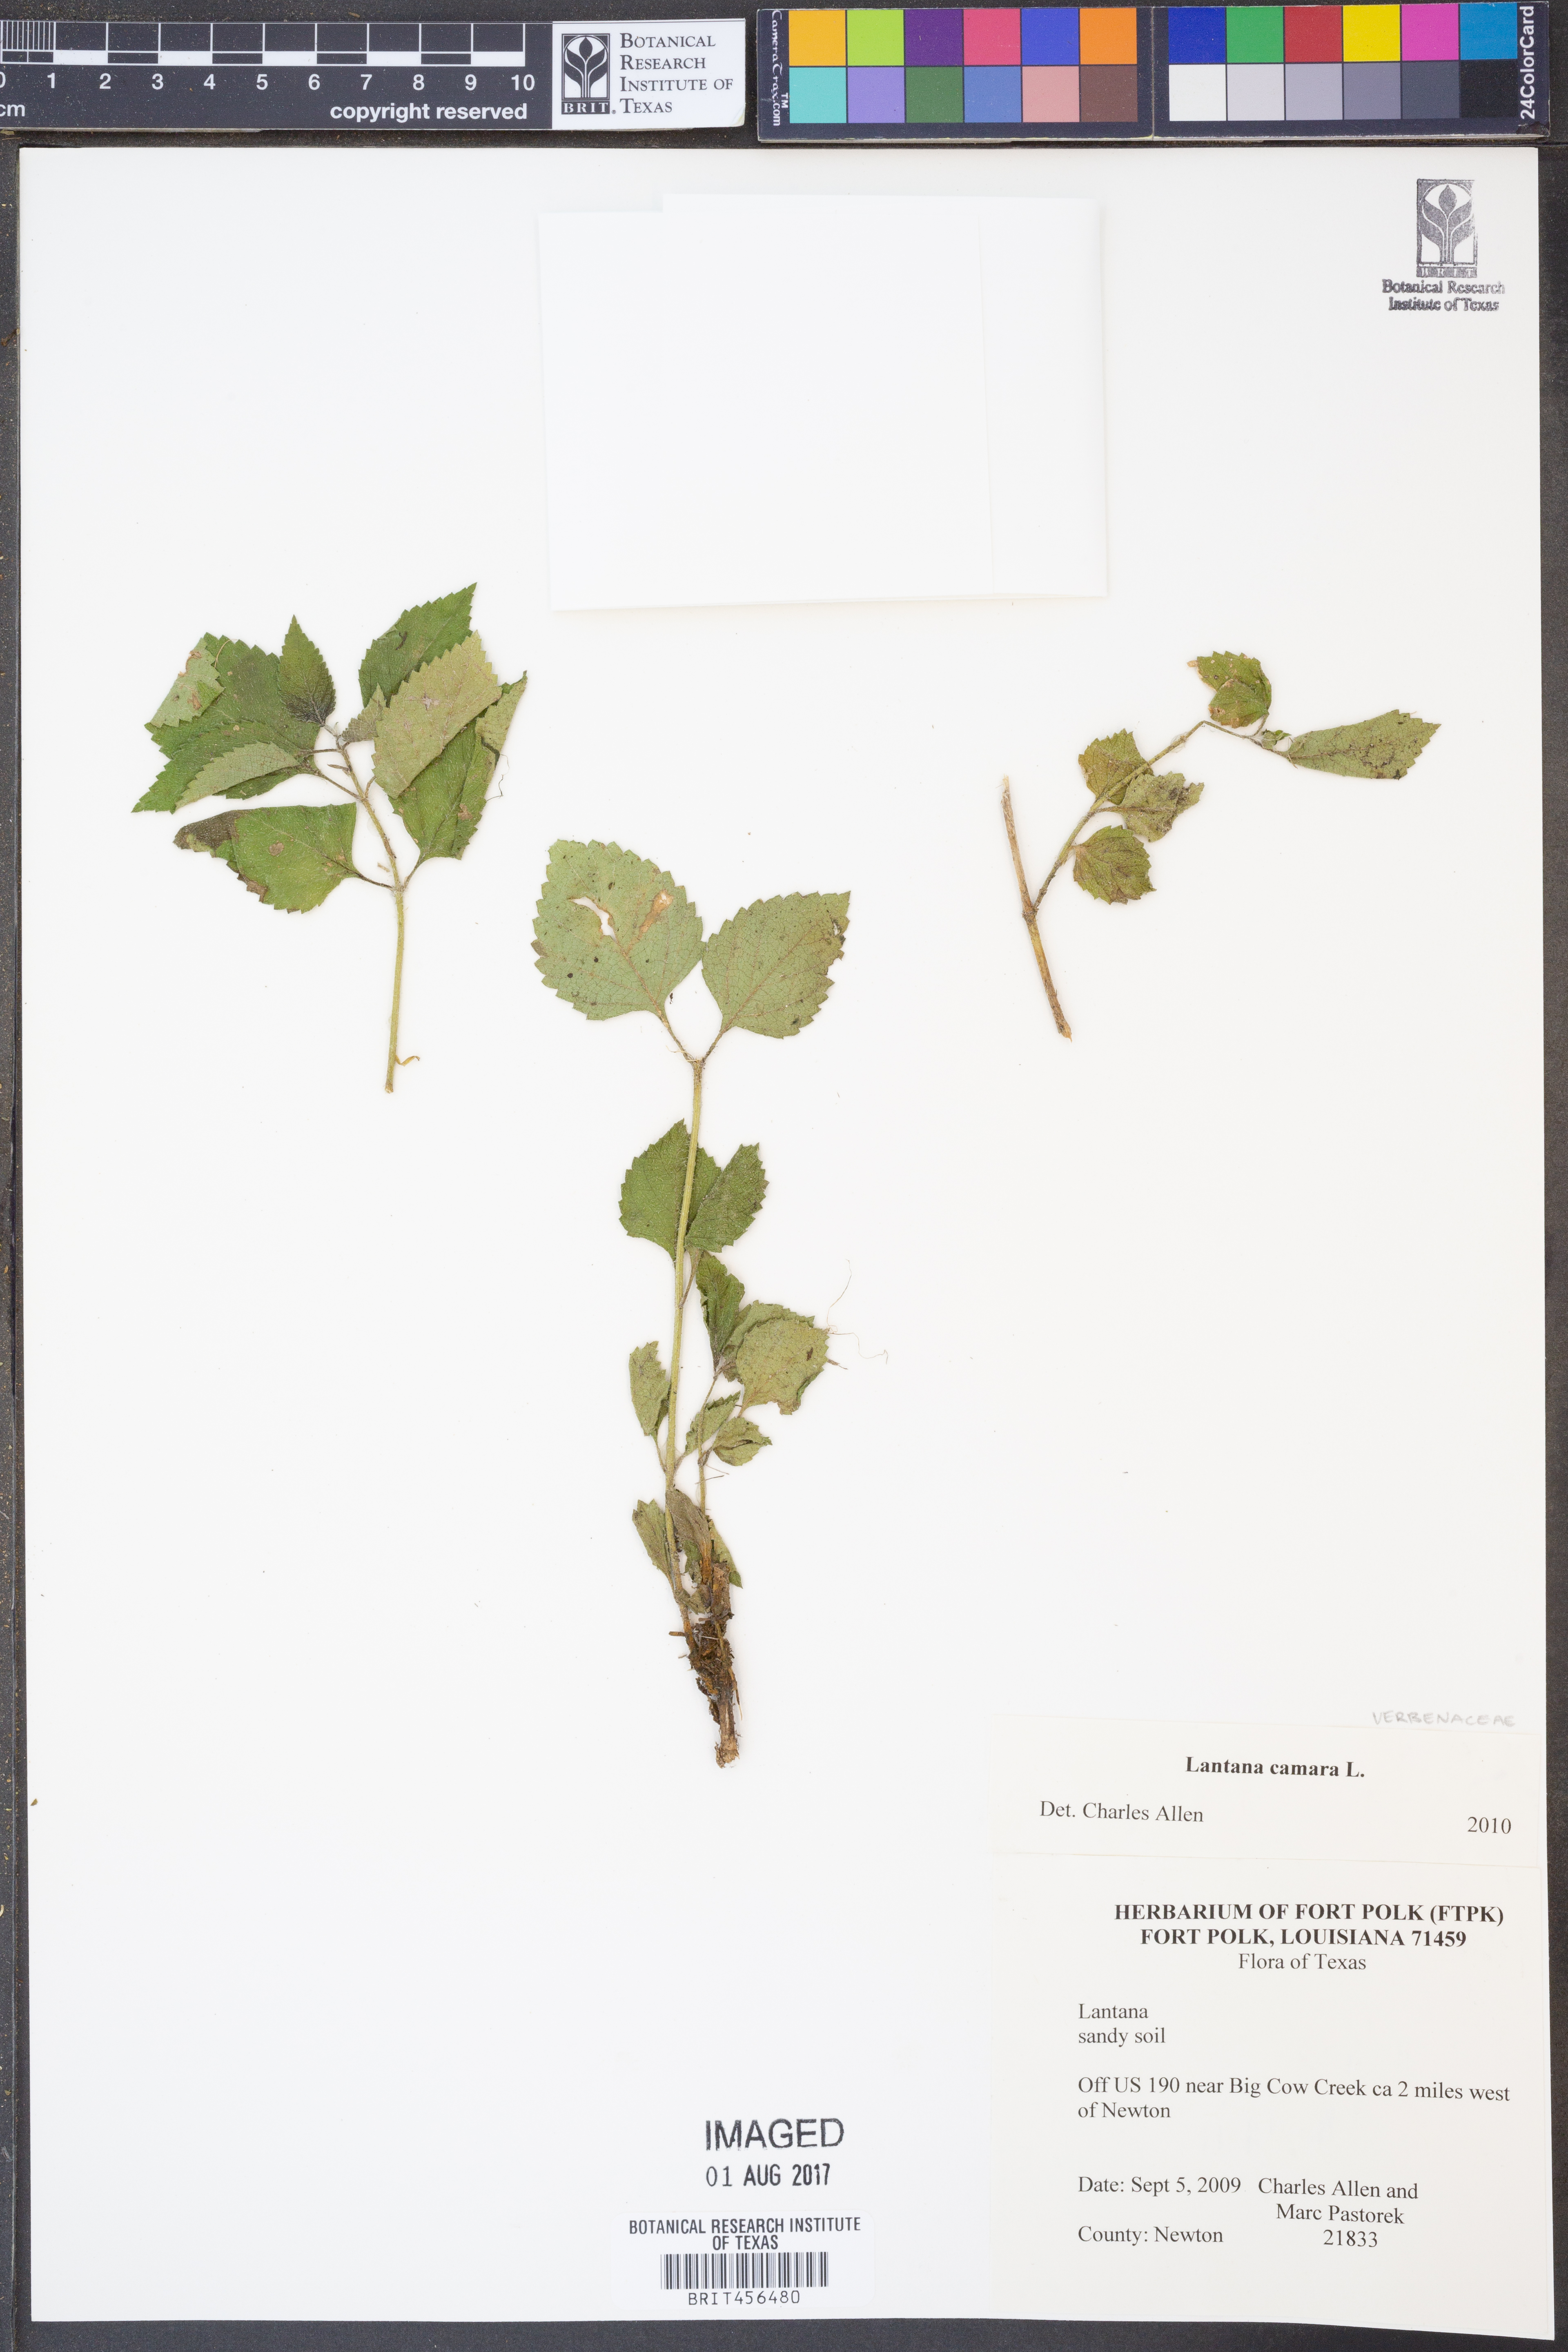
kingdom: Plantae
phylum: Tracheophyta
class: Magnoliopsida
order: Lamiales
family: Verbenaceae
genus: Lantana
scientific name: Lantana camara
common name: Lantana
